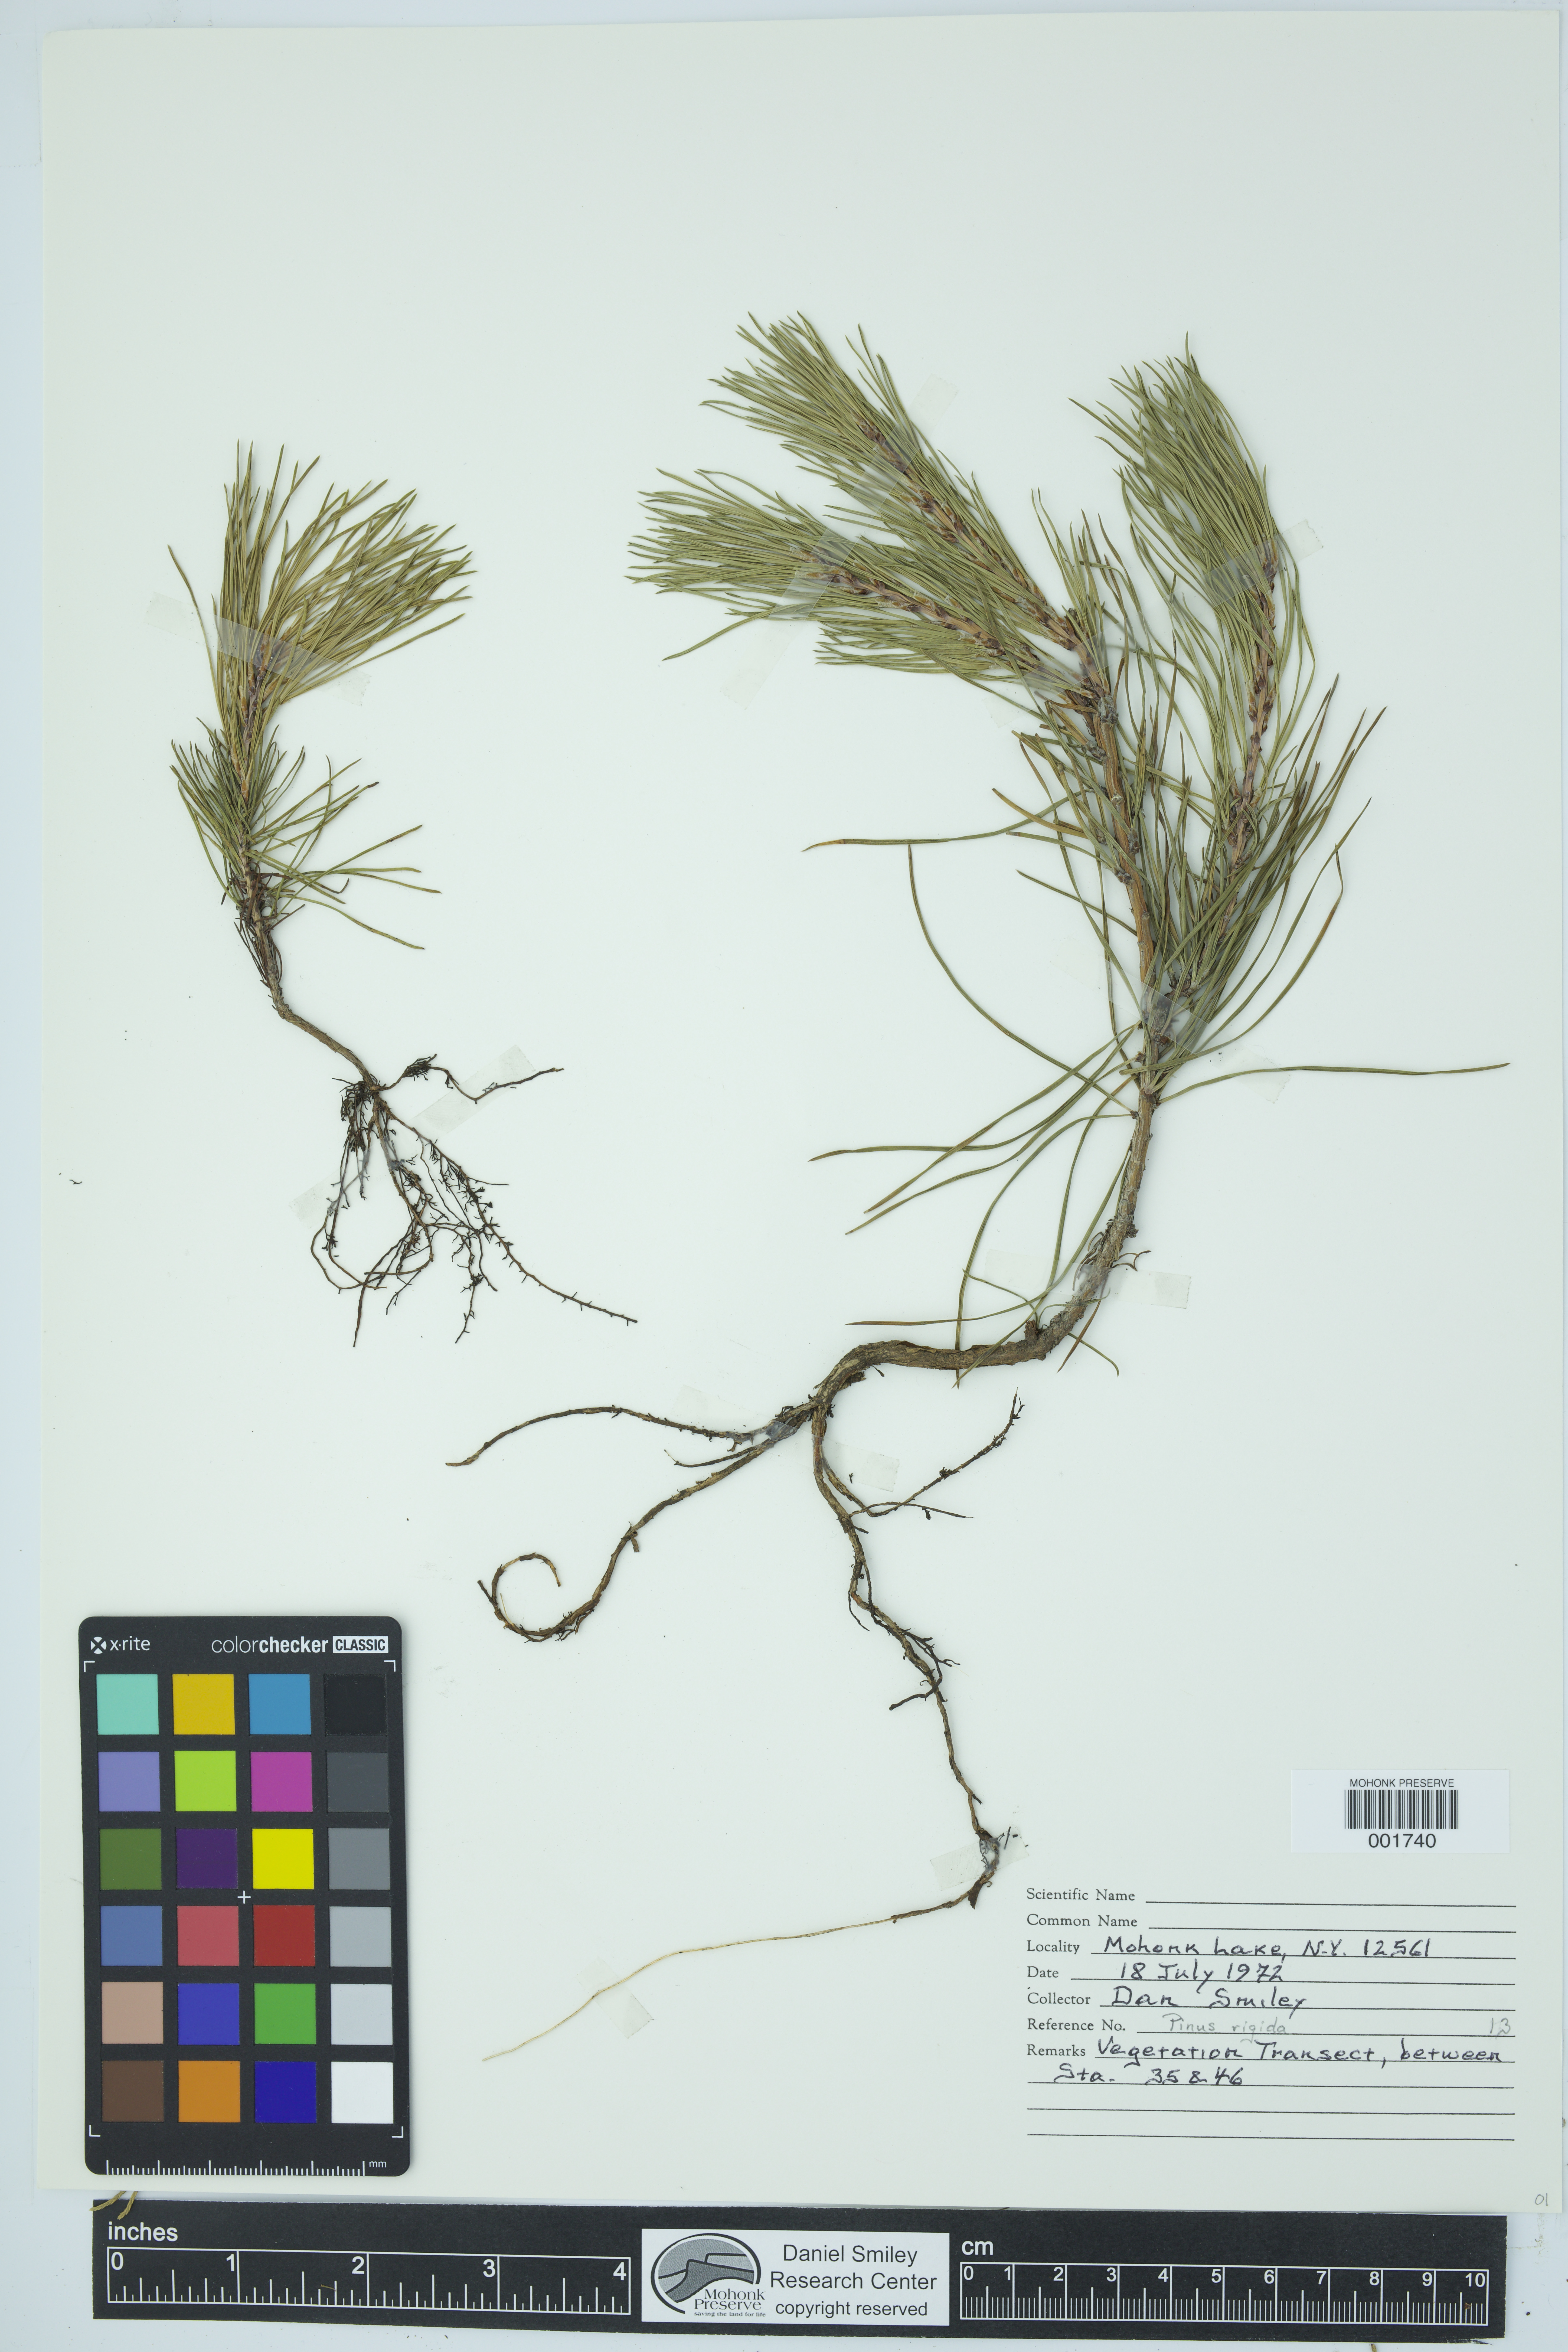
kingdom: Plantae
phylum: Tracheophyta
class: Pinopsida
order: Pinales
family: Pinaceae
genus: Pinus
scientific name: Pinus rigida
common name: Pitch pine
